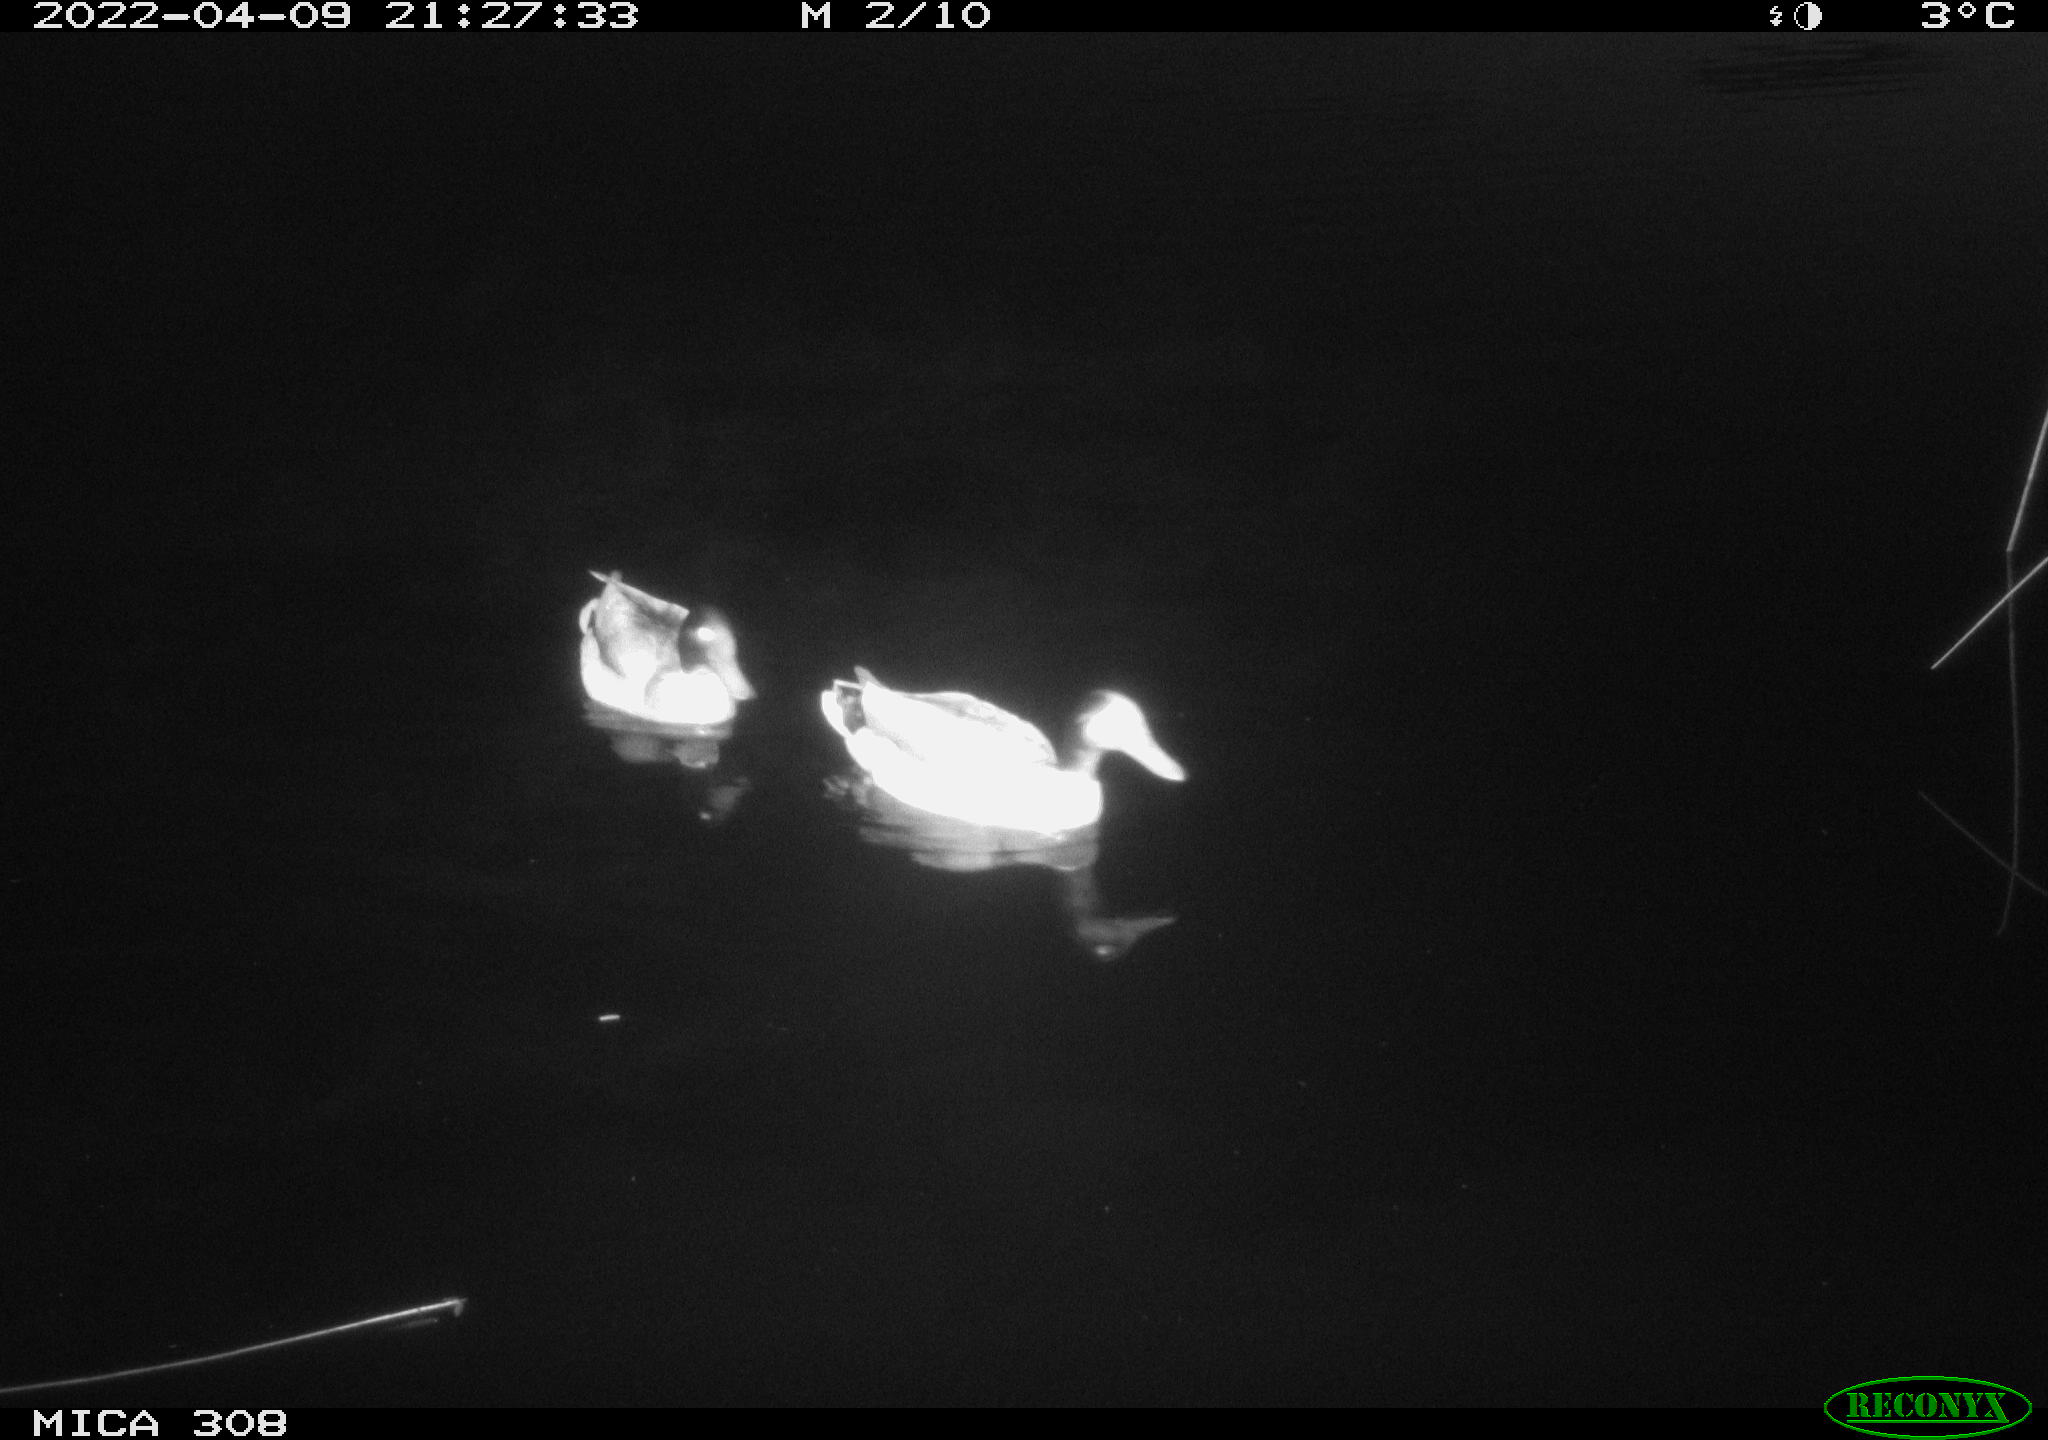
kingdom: Animalia
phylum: Chordata
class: Aves
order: Anseriformes
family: Anatidae
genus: Anas
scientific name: Anas platyrhynchos
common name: Mallard
